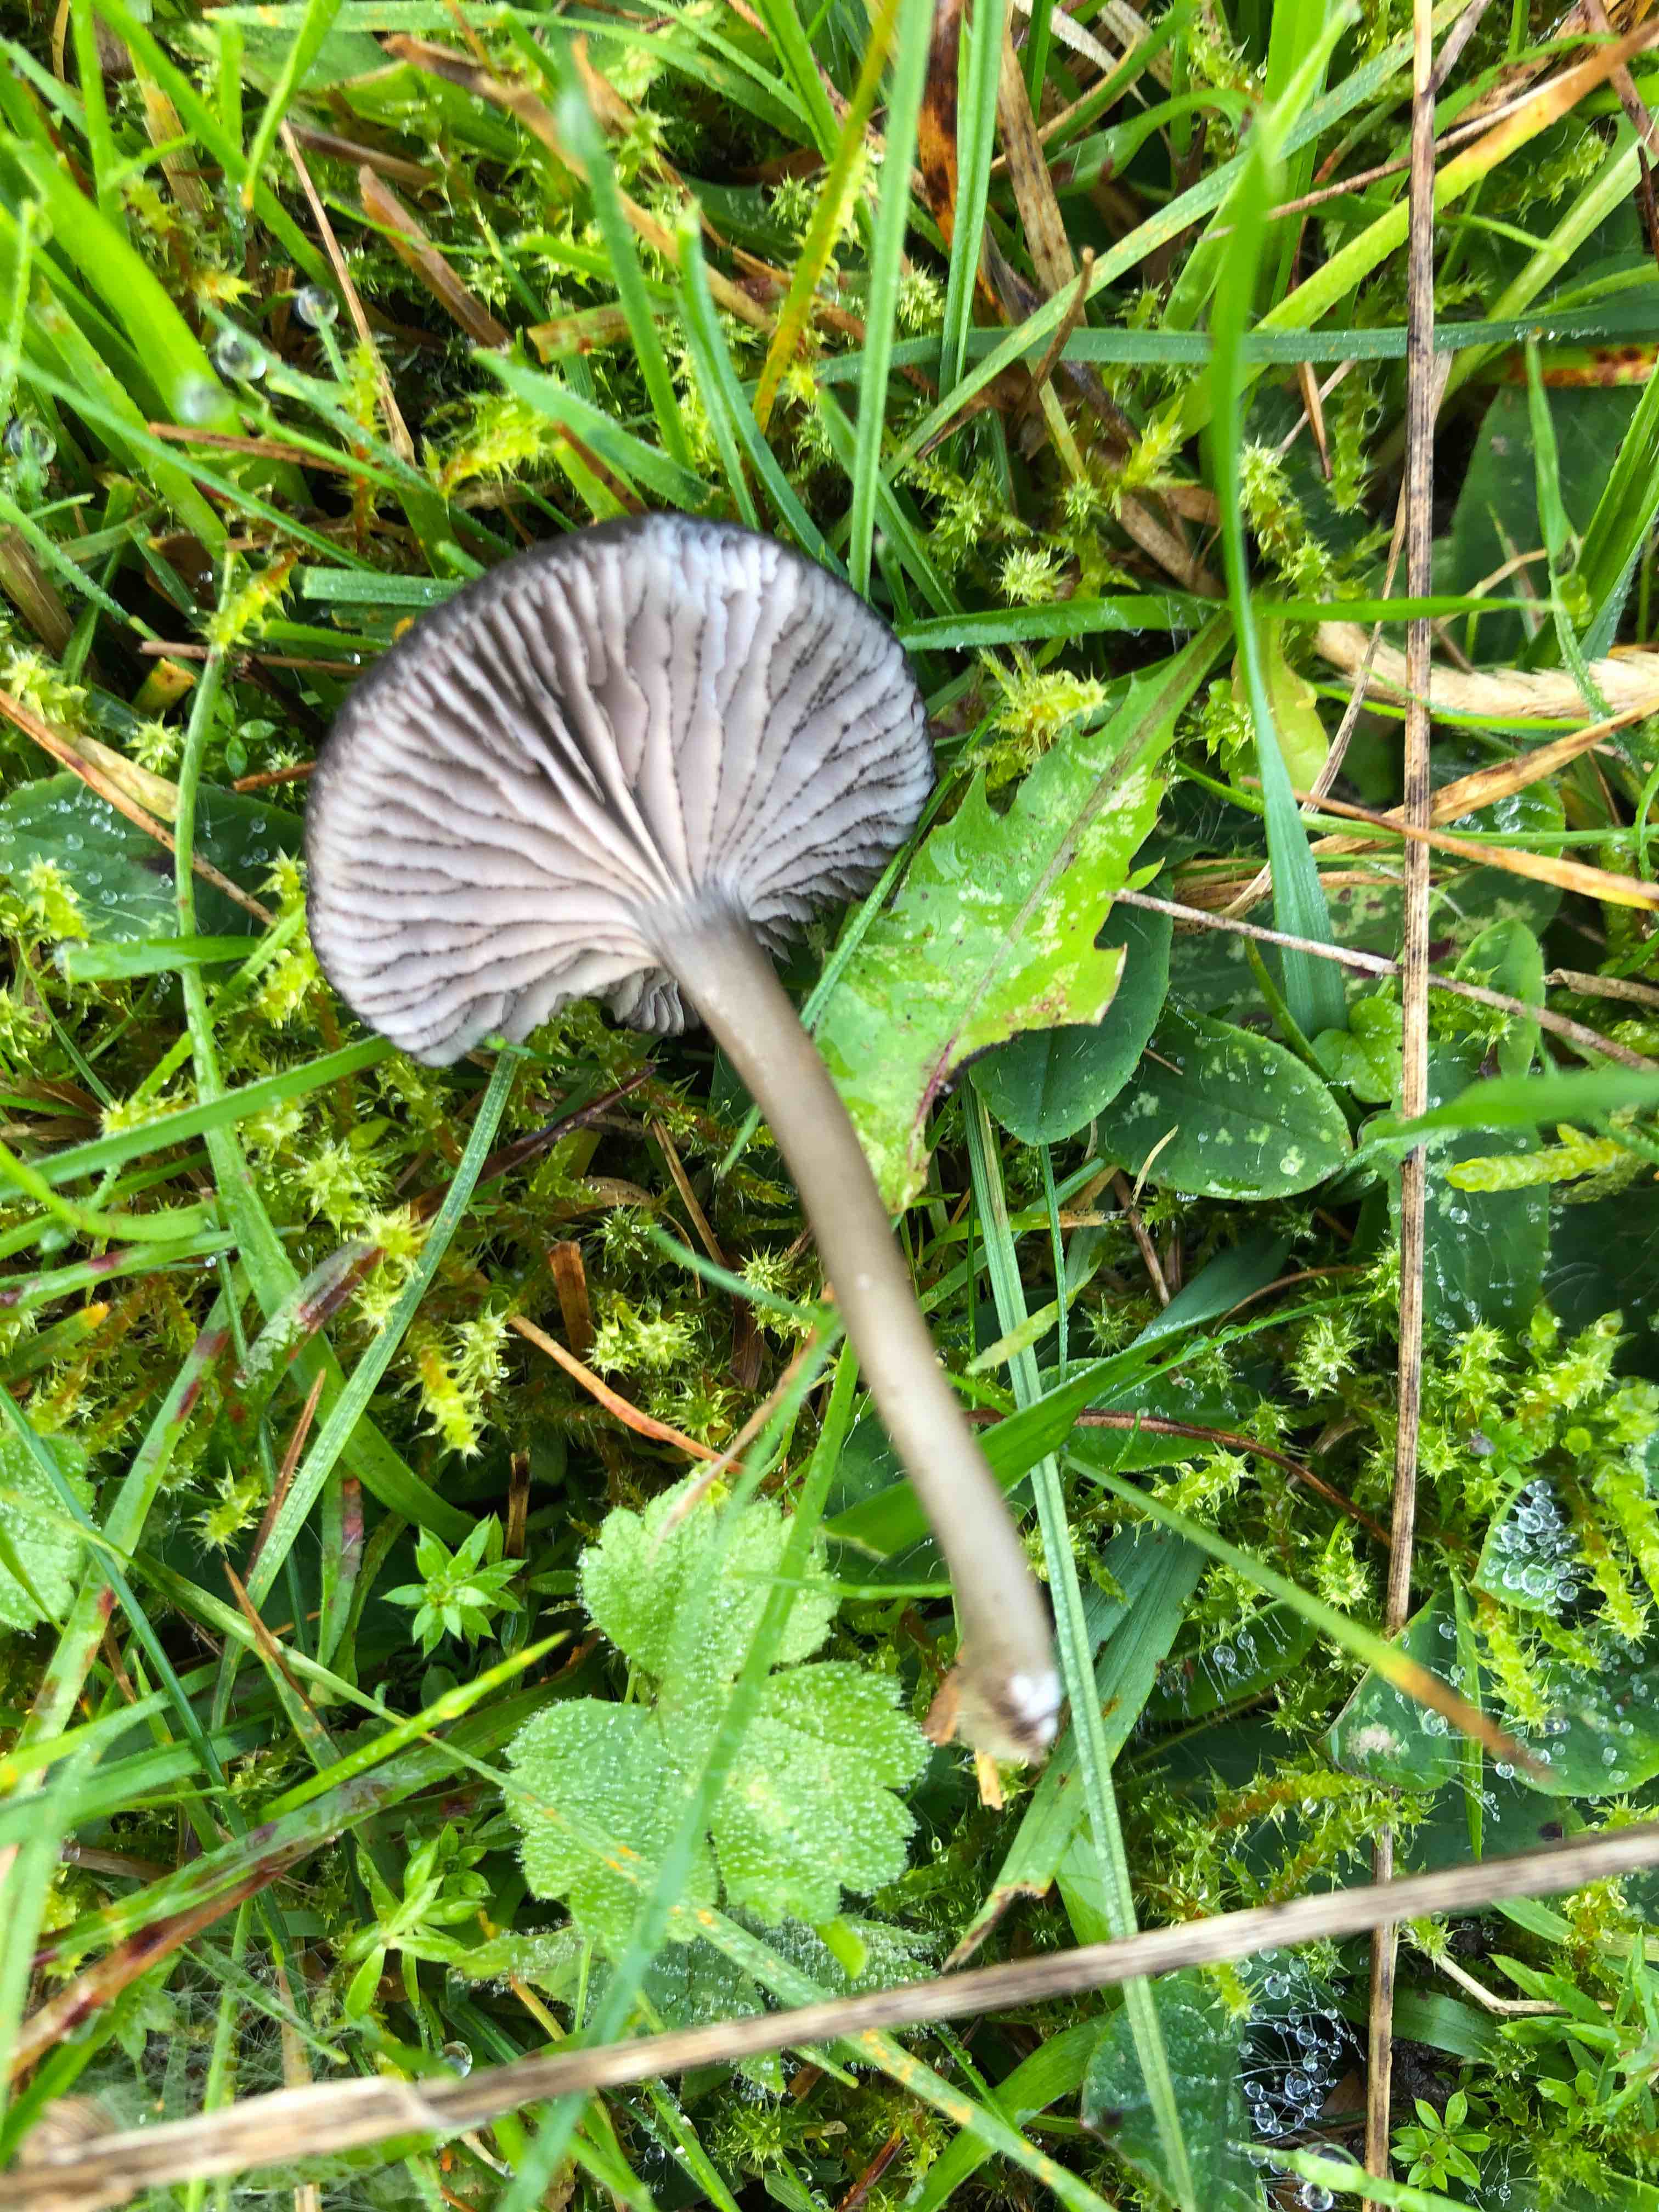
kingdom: Fungi
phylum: Basidiomycota
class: Agaricomycetes
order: Agaricales
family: Entolomataceae
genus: Entoloma
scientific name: Entoloma
